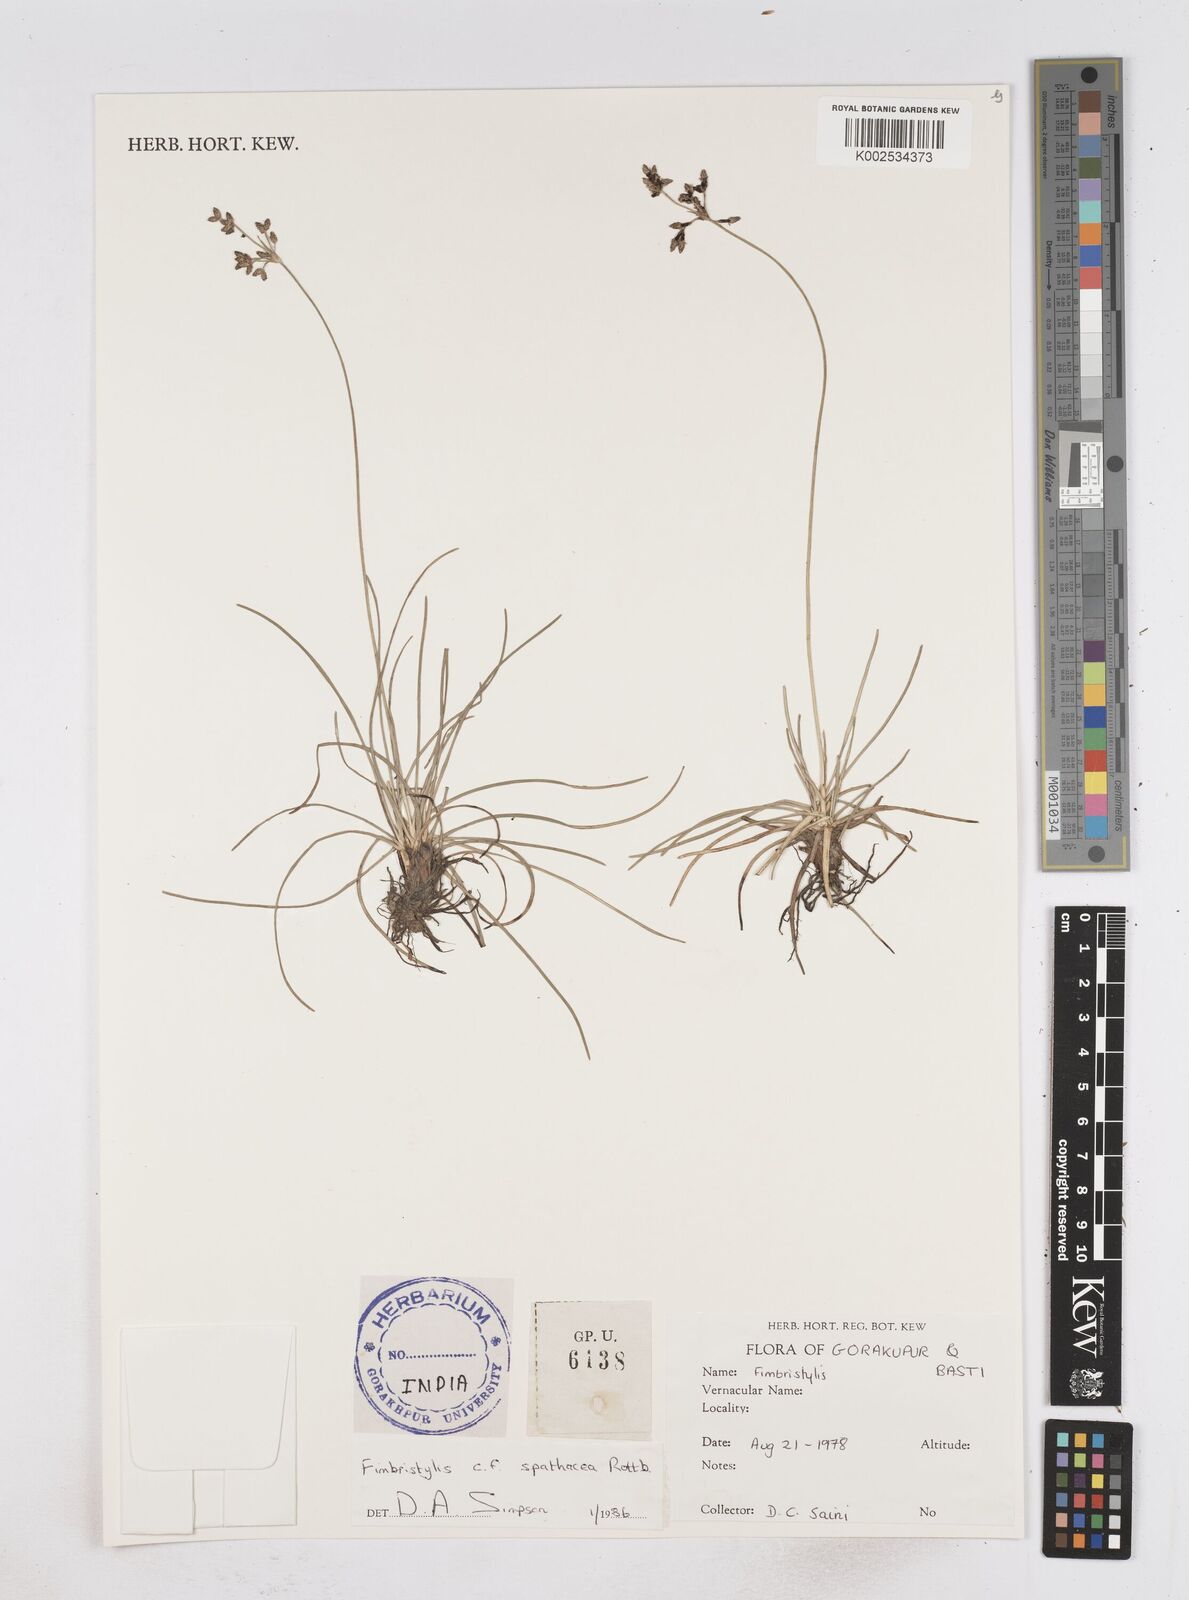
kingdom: Plantae
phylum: Tracheophyta
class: Liliopsida
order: Poales
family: Cyperaceae
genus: Fimbristylis
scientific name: Fimbristylis cymosa
